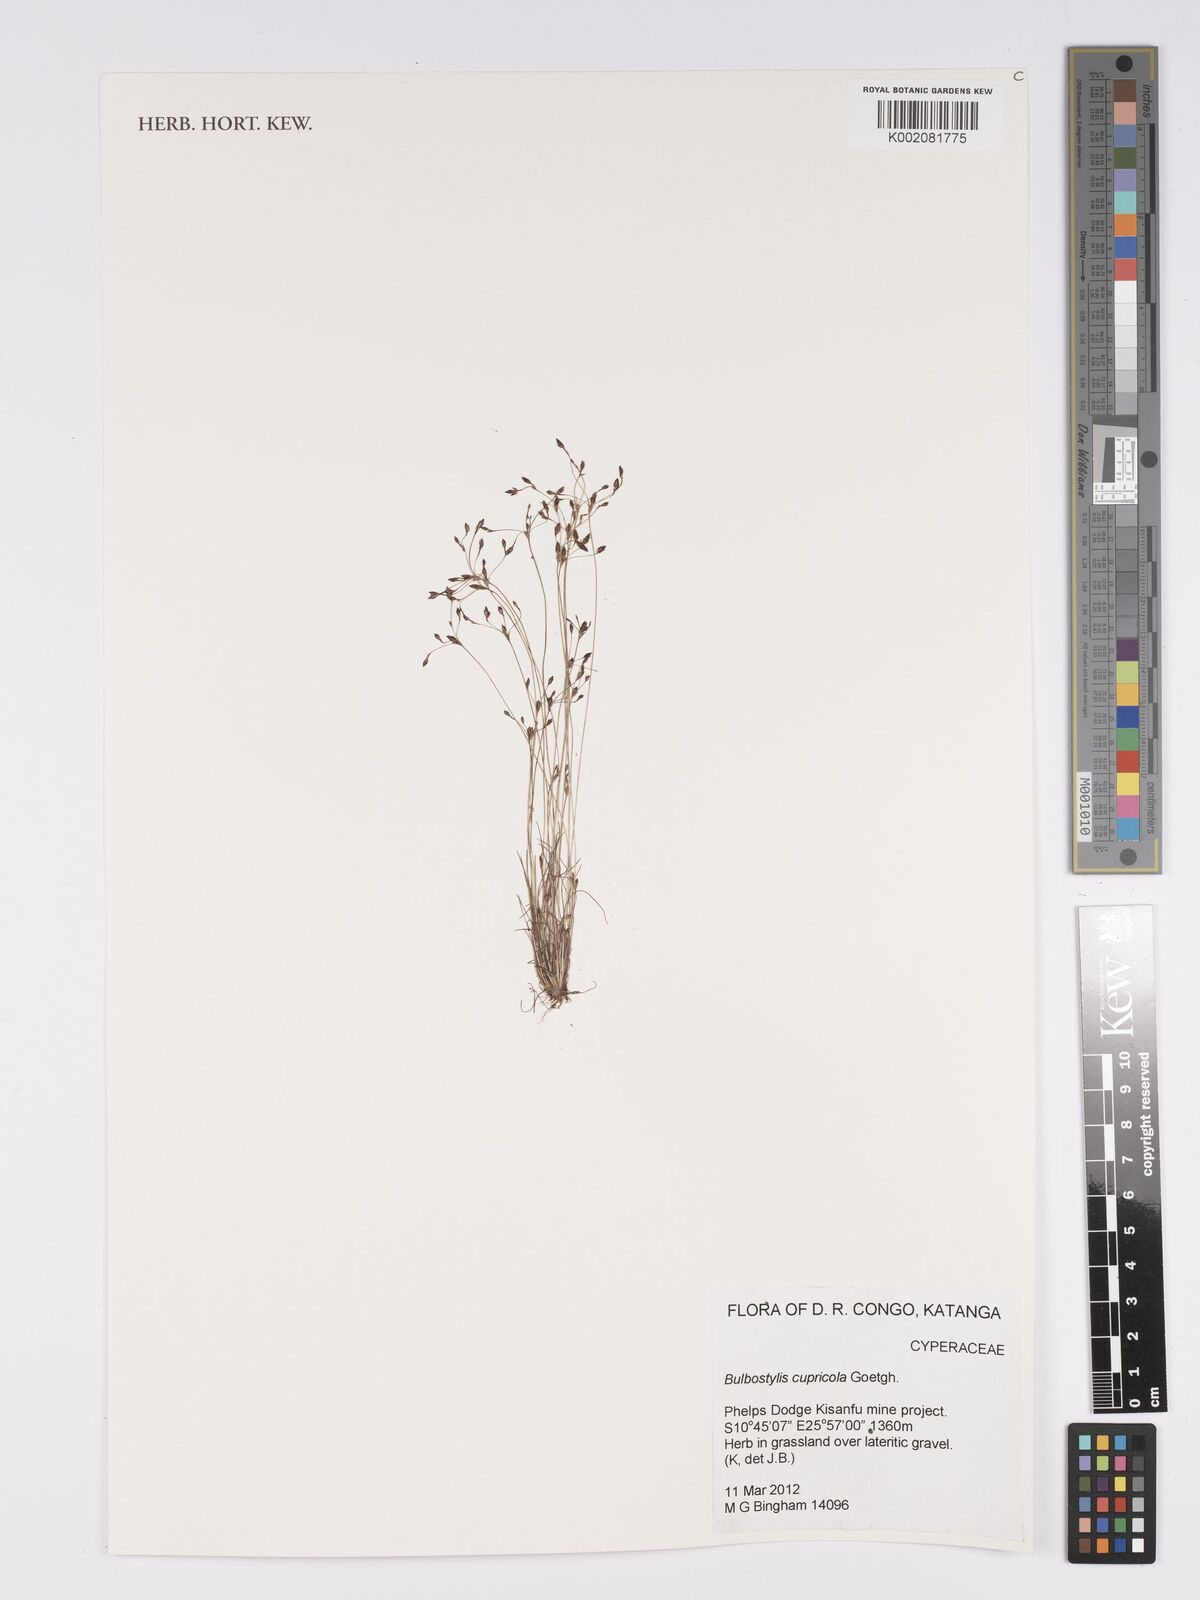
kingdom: Plantae
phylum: Tracheophyta
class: Liliopsida
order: Poales
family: Cyperaceae
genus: Bulbostylis
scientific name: Bulbostylis cupricola
